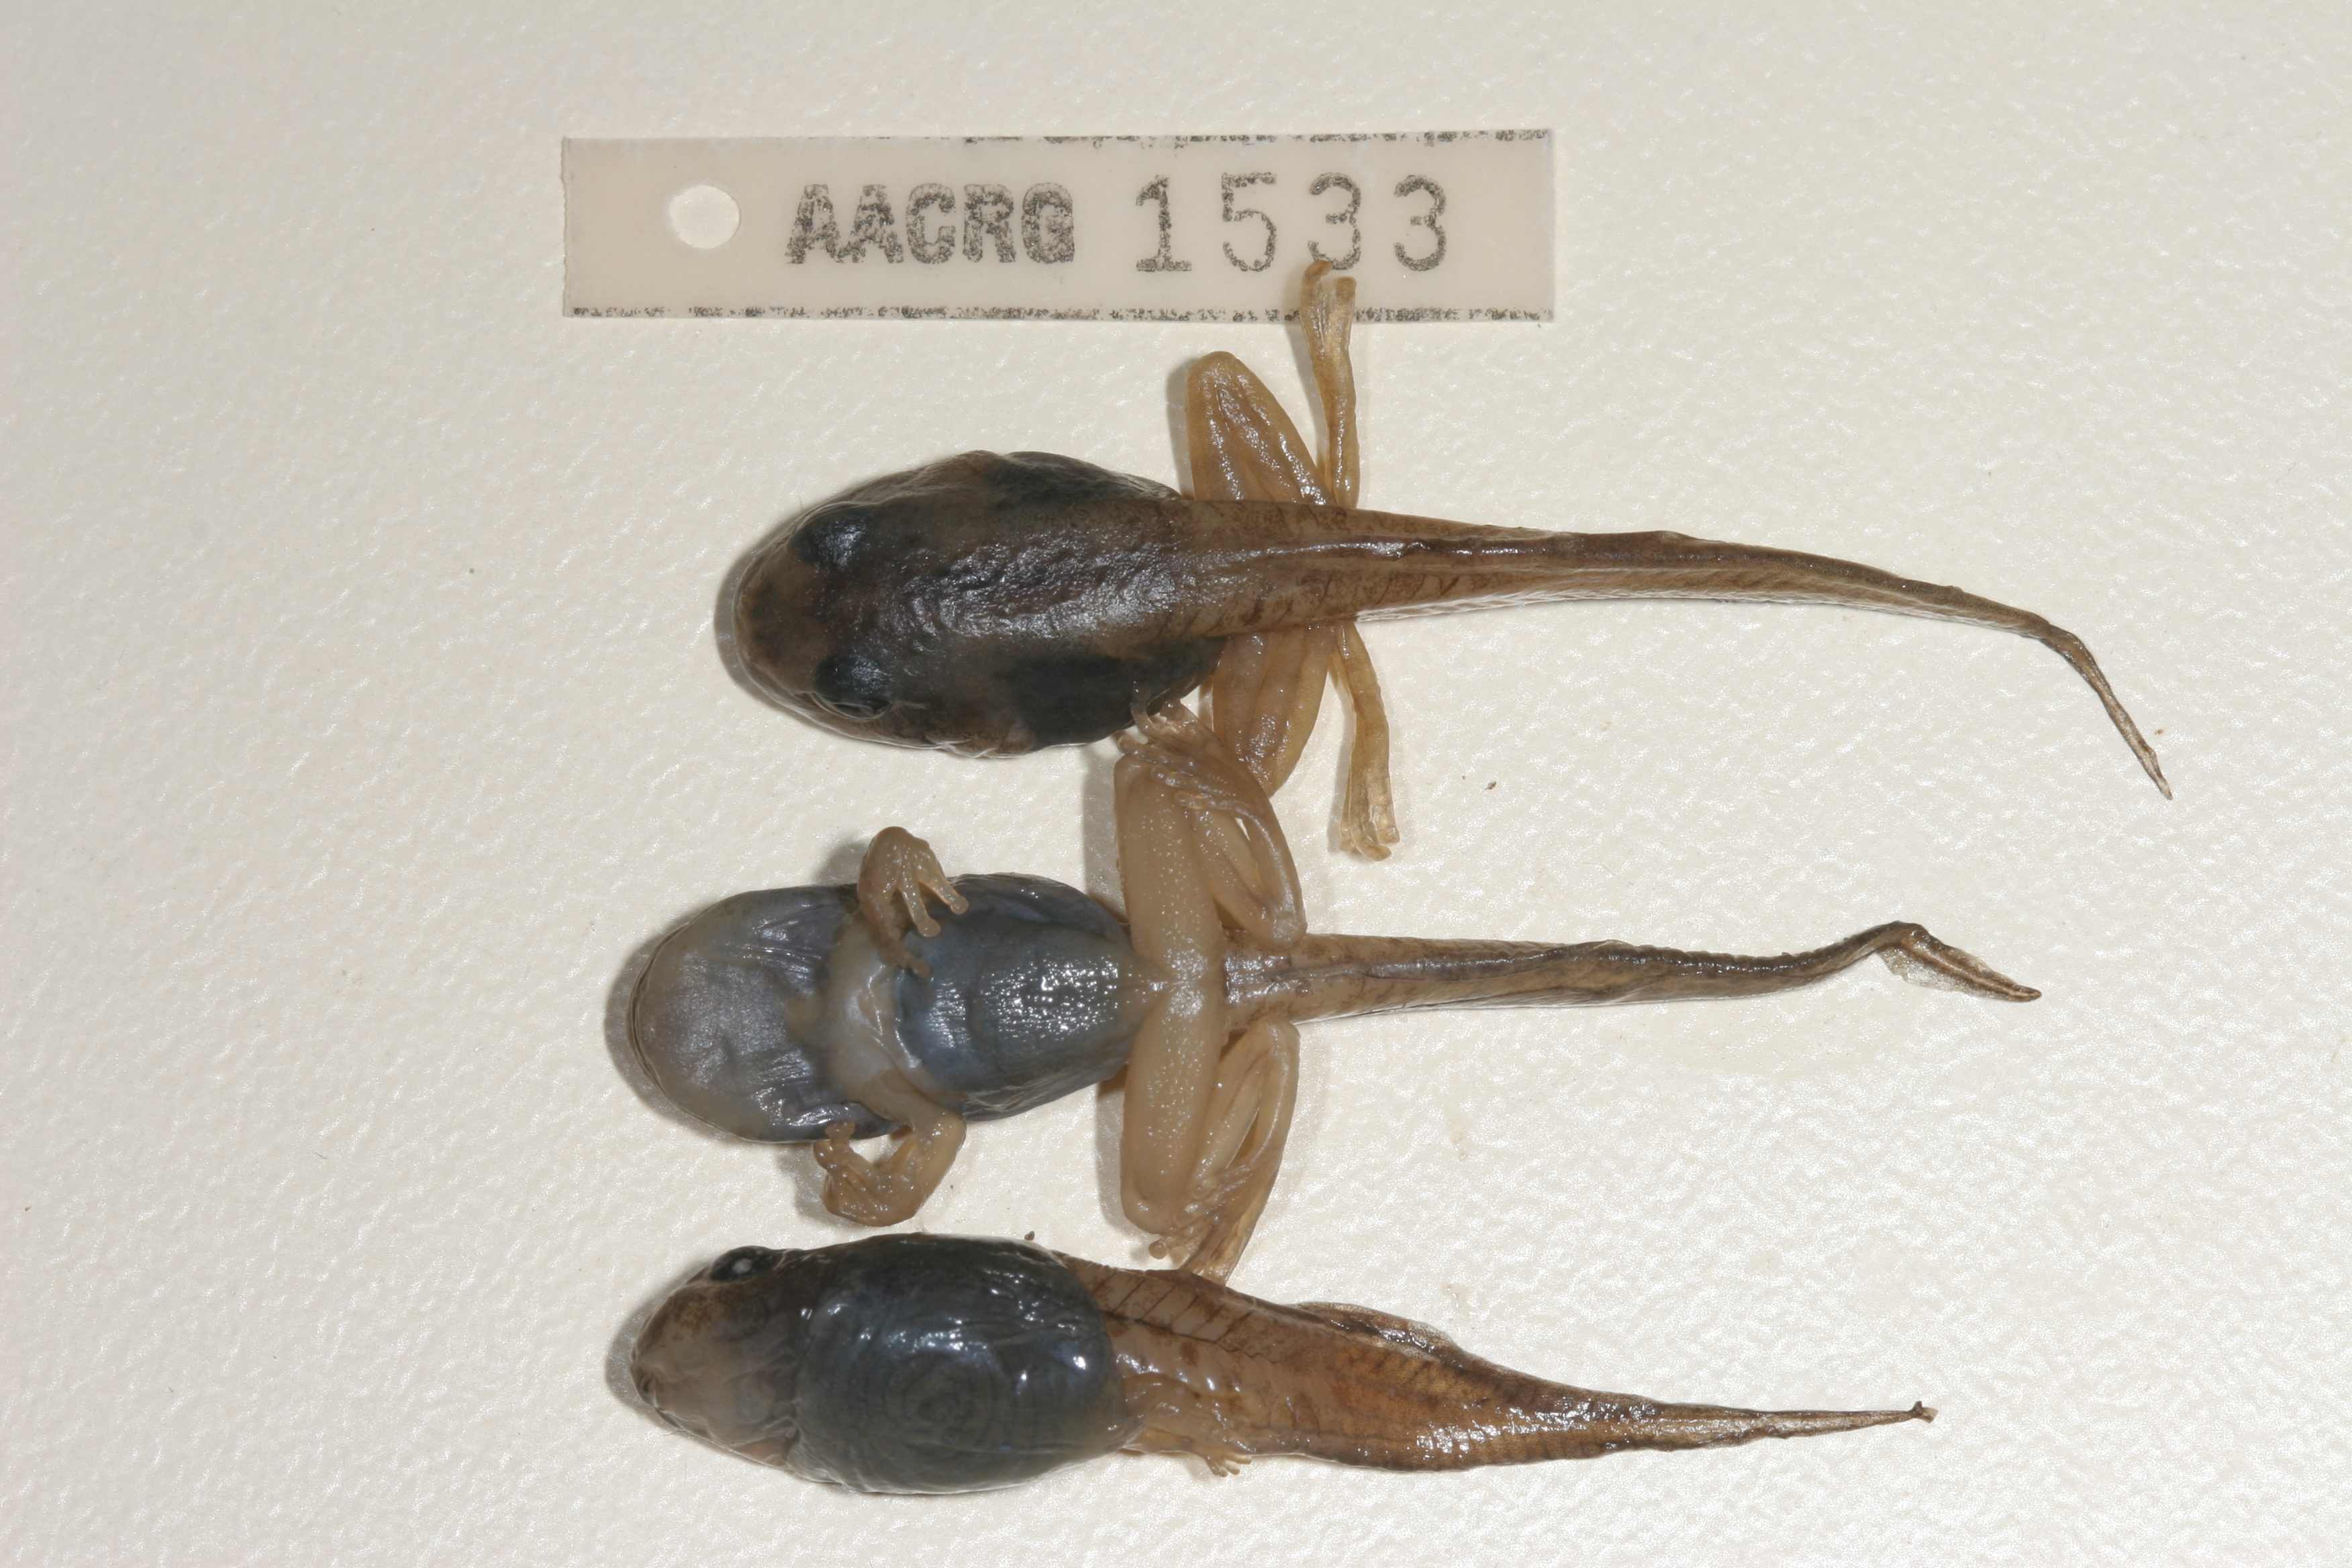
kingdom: Animalia
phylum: Chordata
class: Amphibia
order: Anura
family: Rhacophoridae
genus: Chiromantis
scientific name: Chiromantis xerampelina
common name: African gray treefrog
